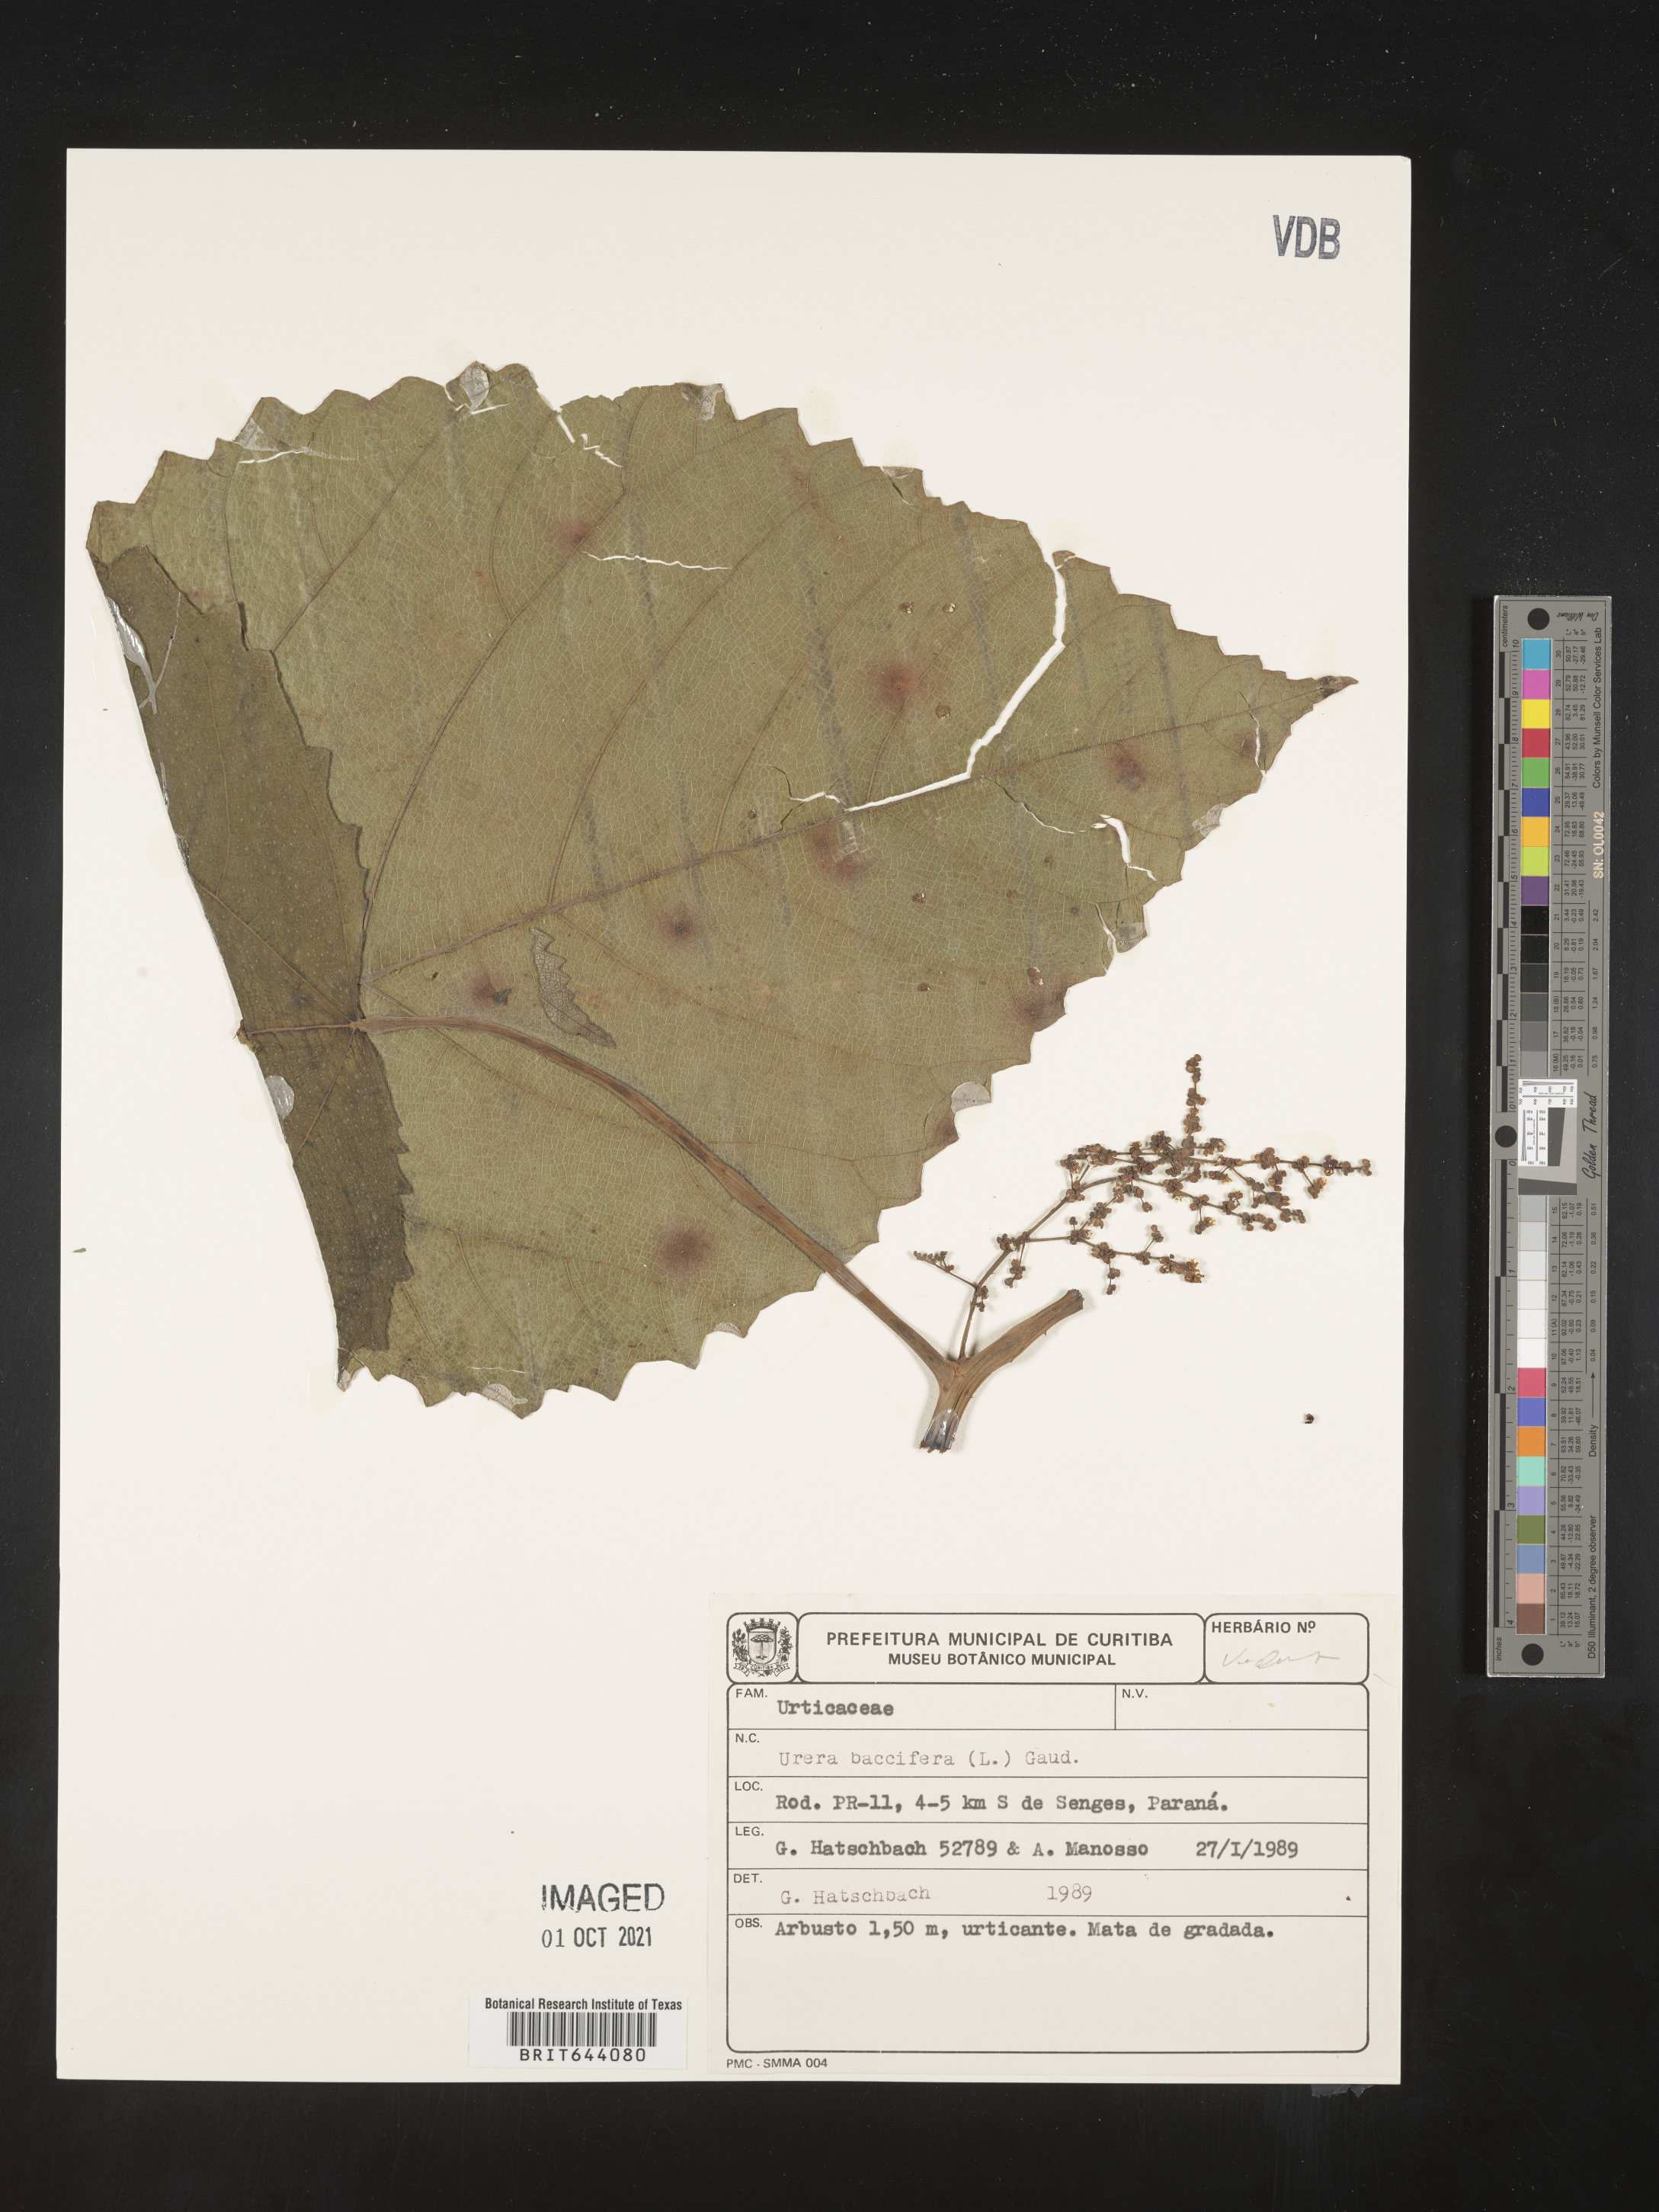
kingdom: Plantae
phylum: Tracheophyta
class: Magnoliopsida
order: Rosales
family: Urticaceae
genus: Urera
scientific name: Urera
